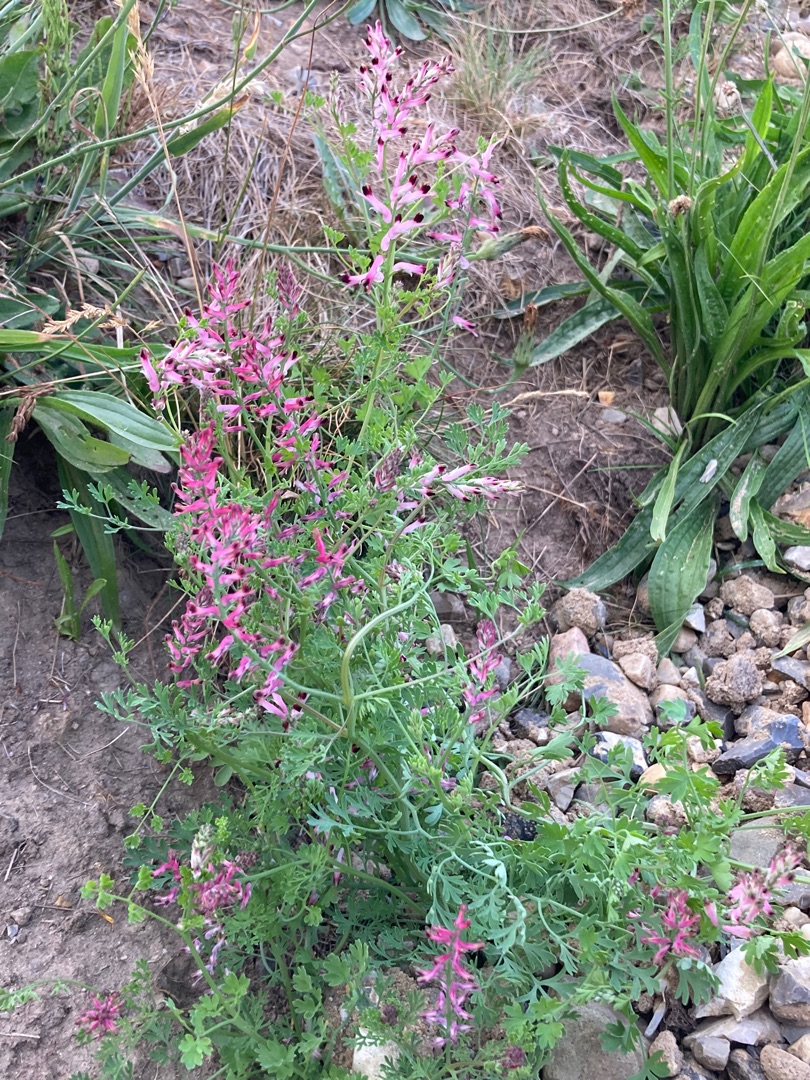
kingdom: Plantae
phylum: Tracheophyta
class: Magnoliopsida
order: Ranunculales
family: Papaveraceae
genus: Fumaria
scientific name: Fumaria officinalis
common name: Læge-jordrøg
